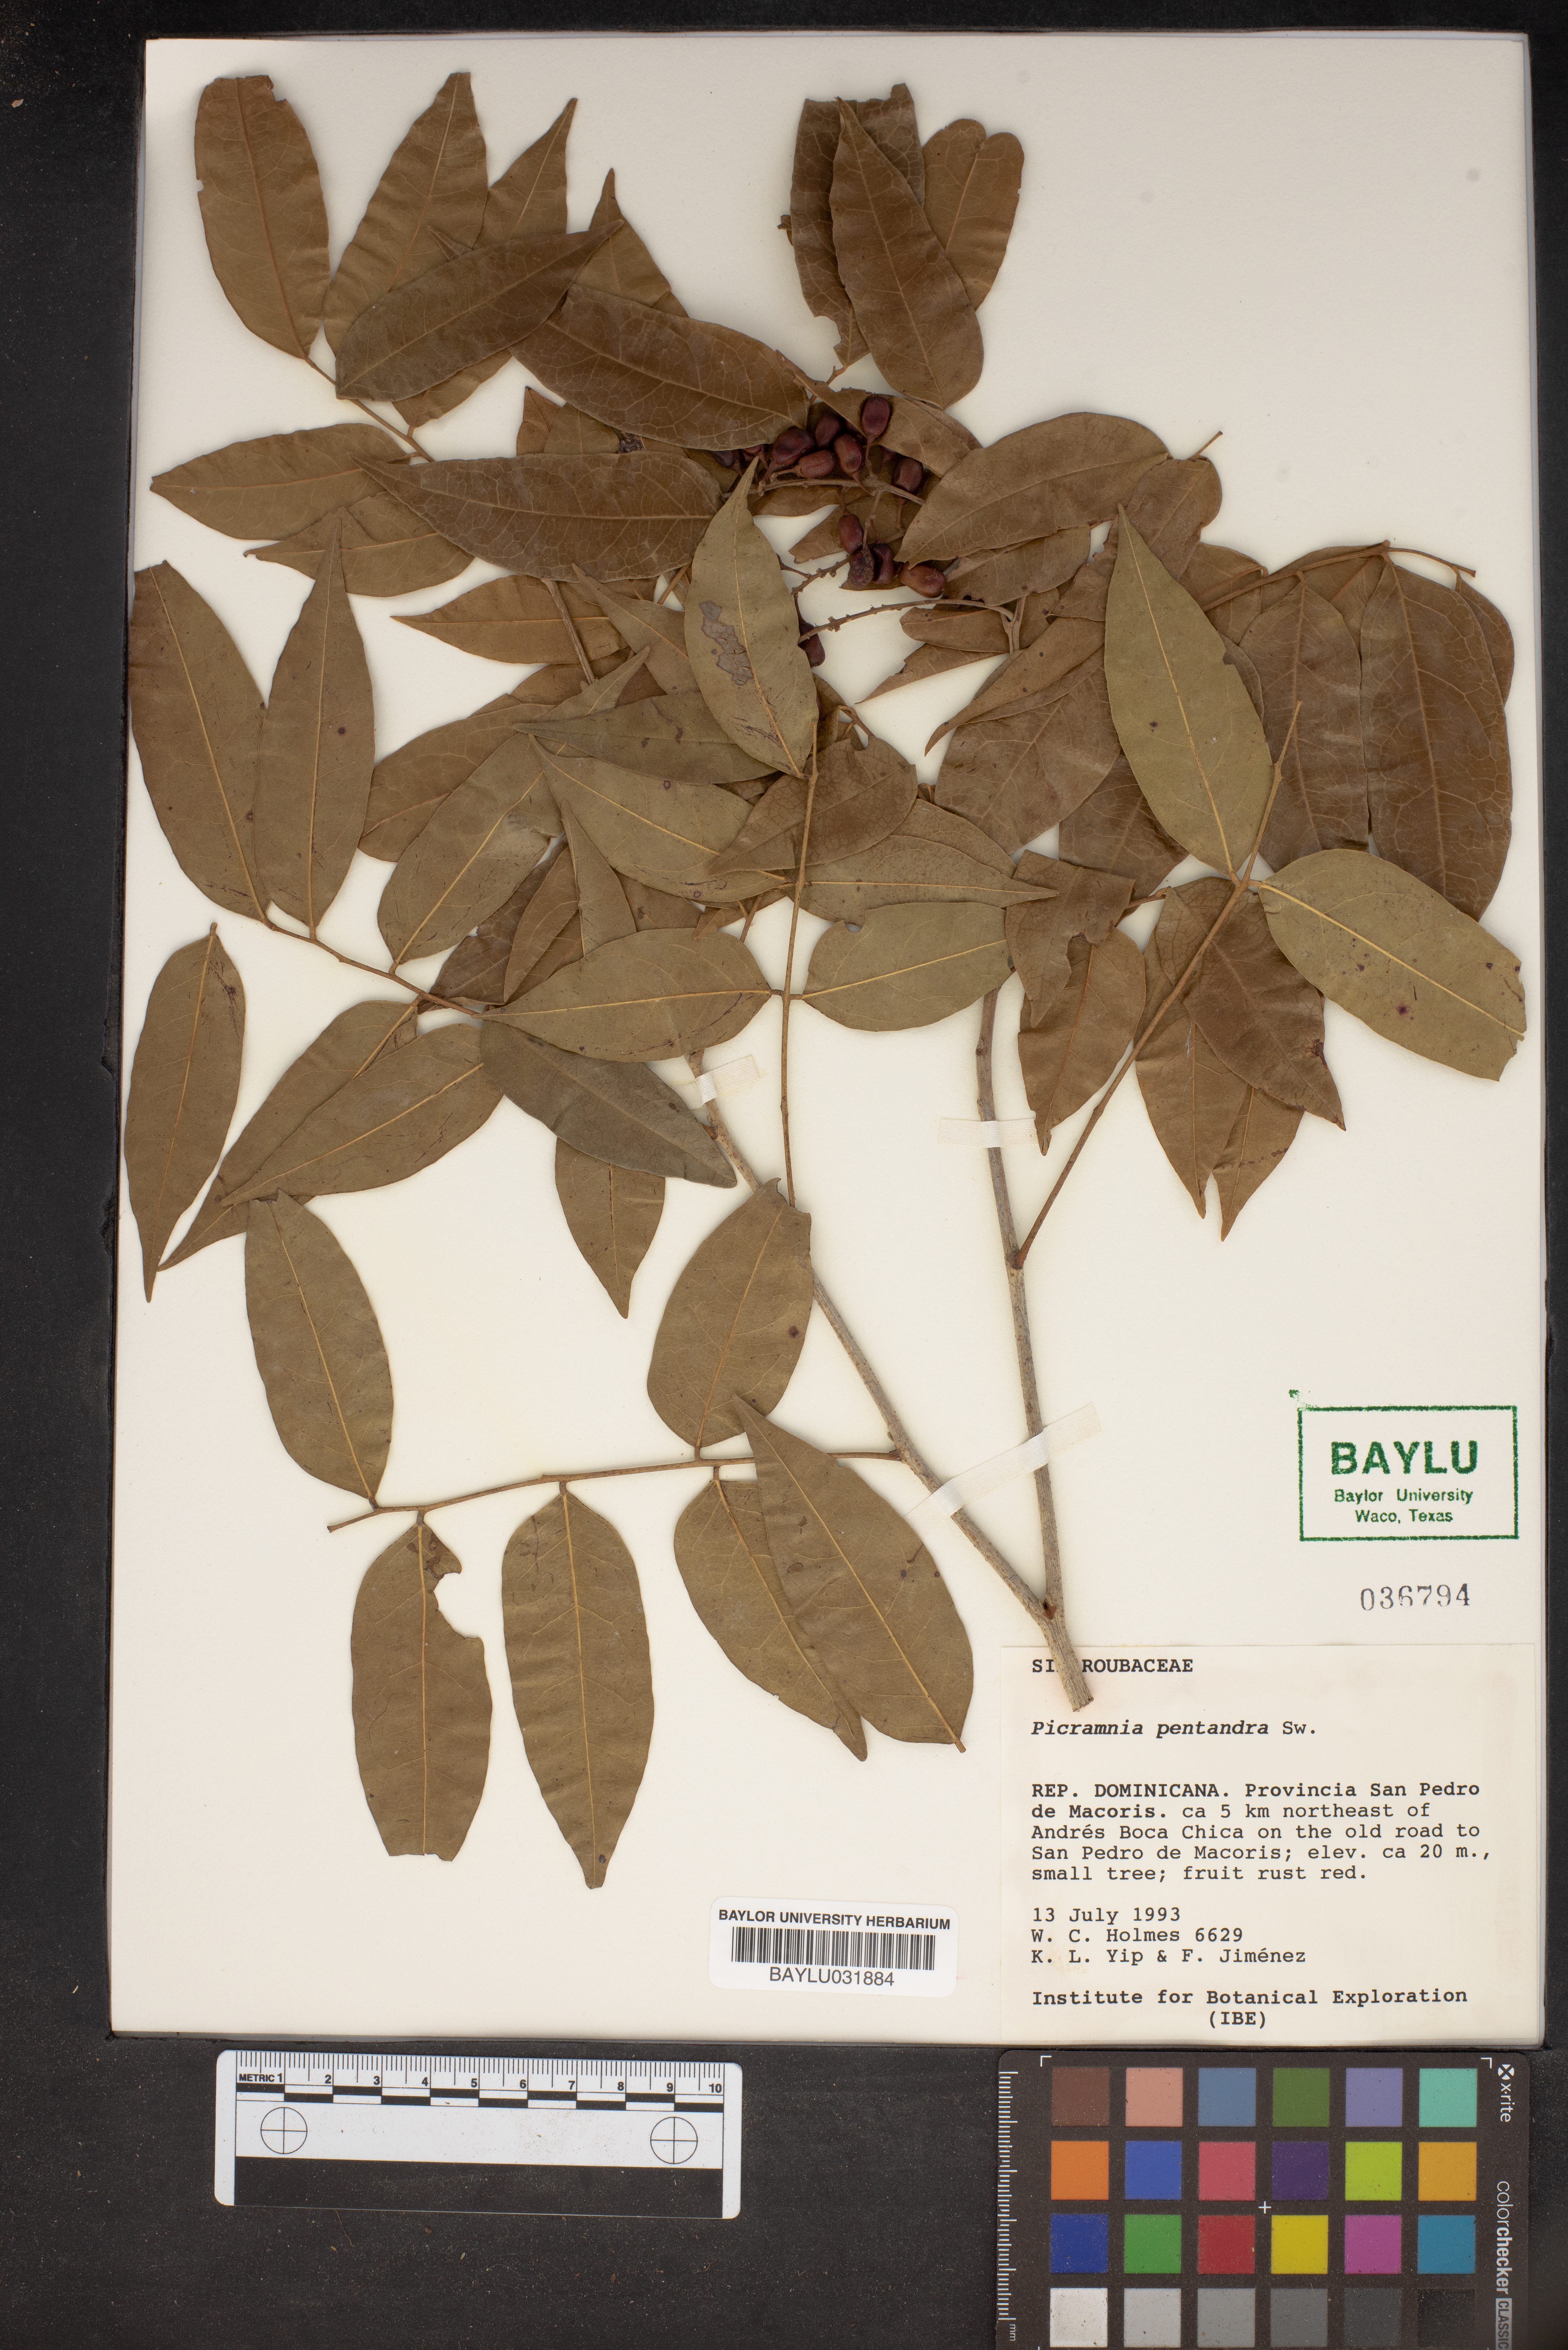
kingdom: Plantae
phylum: Tracheophyta
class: Magnoliopsida
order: Picramniales
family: Picramniaceae
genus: Picramnia
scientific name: Picramnia pentandra
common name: Florida bitterbush
